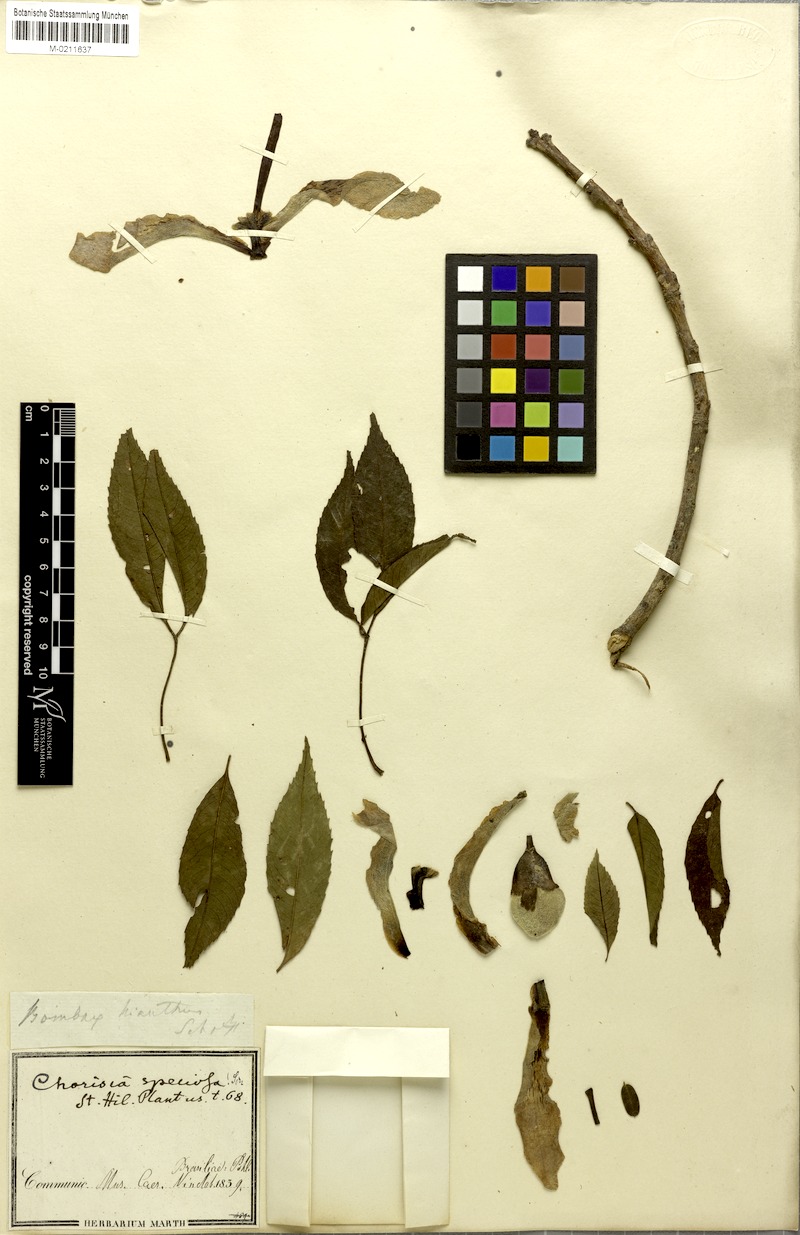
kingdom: Plantae
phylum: Tracheophyta
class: Magnoliopsida
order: Malvales
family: Malvaceae
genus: Ceiba
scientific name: Ceiba speciosa
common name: Silk-floss tree
